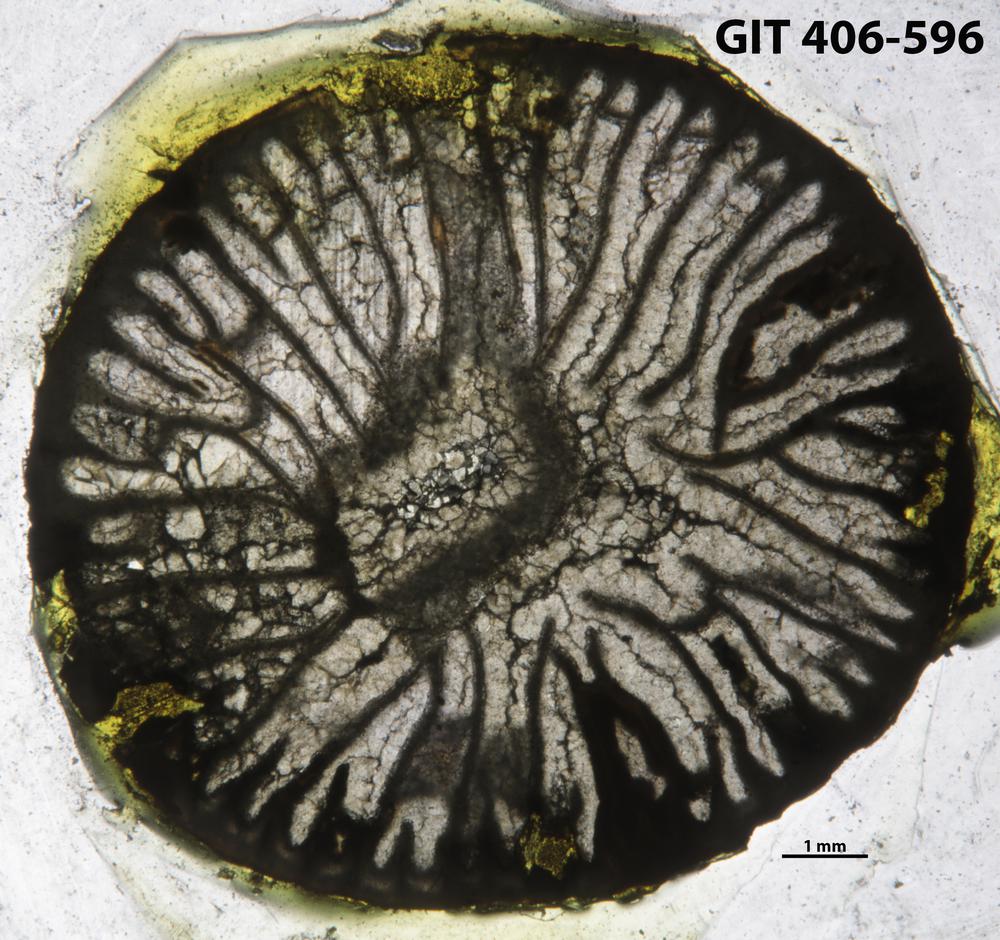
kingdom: Animalia
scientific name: Animalia
